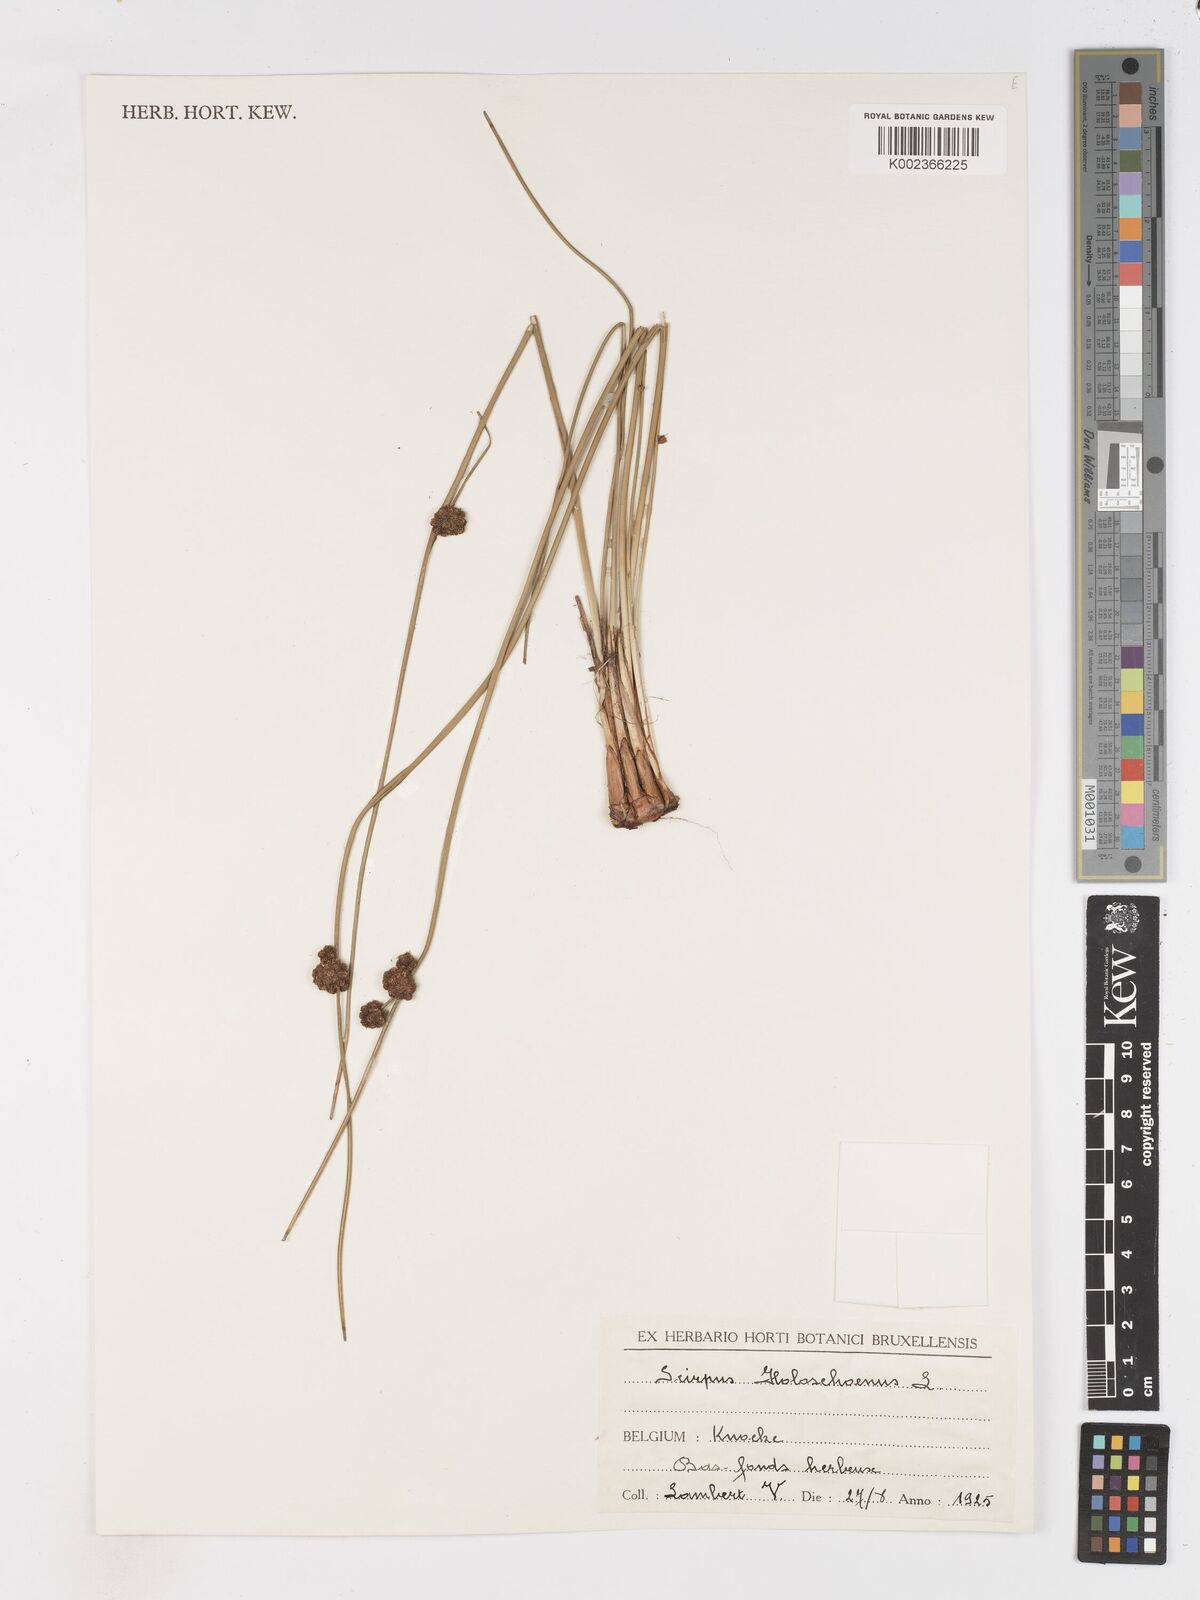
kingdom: Plantae
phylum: Tracheophyta
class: Liliopsida
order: Poales
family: Cyperaceae
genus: Scirpoides
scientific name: Scirpoides holoschoenus
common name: Round-headed club-rush
